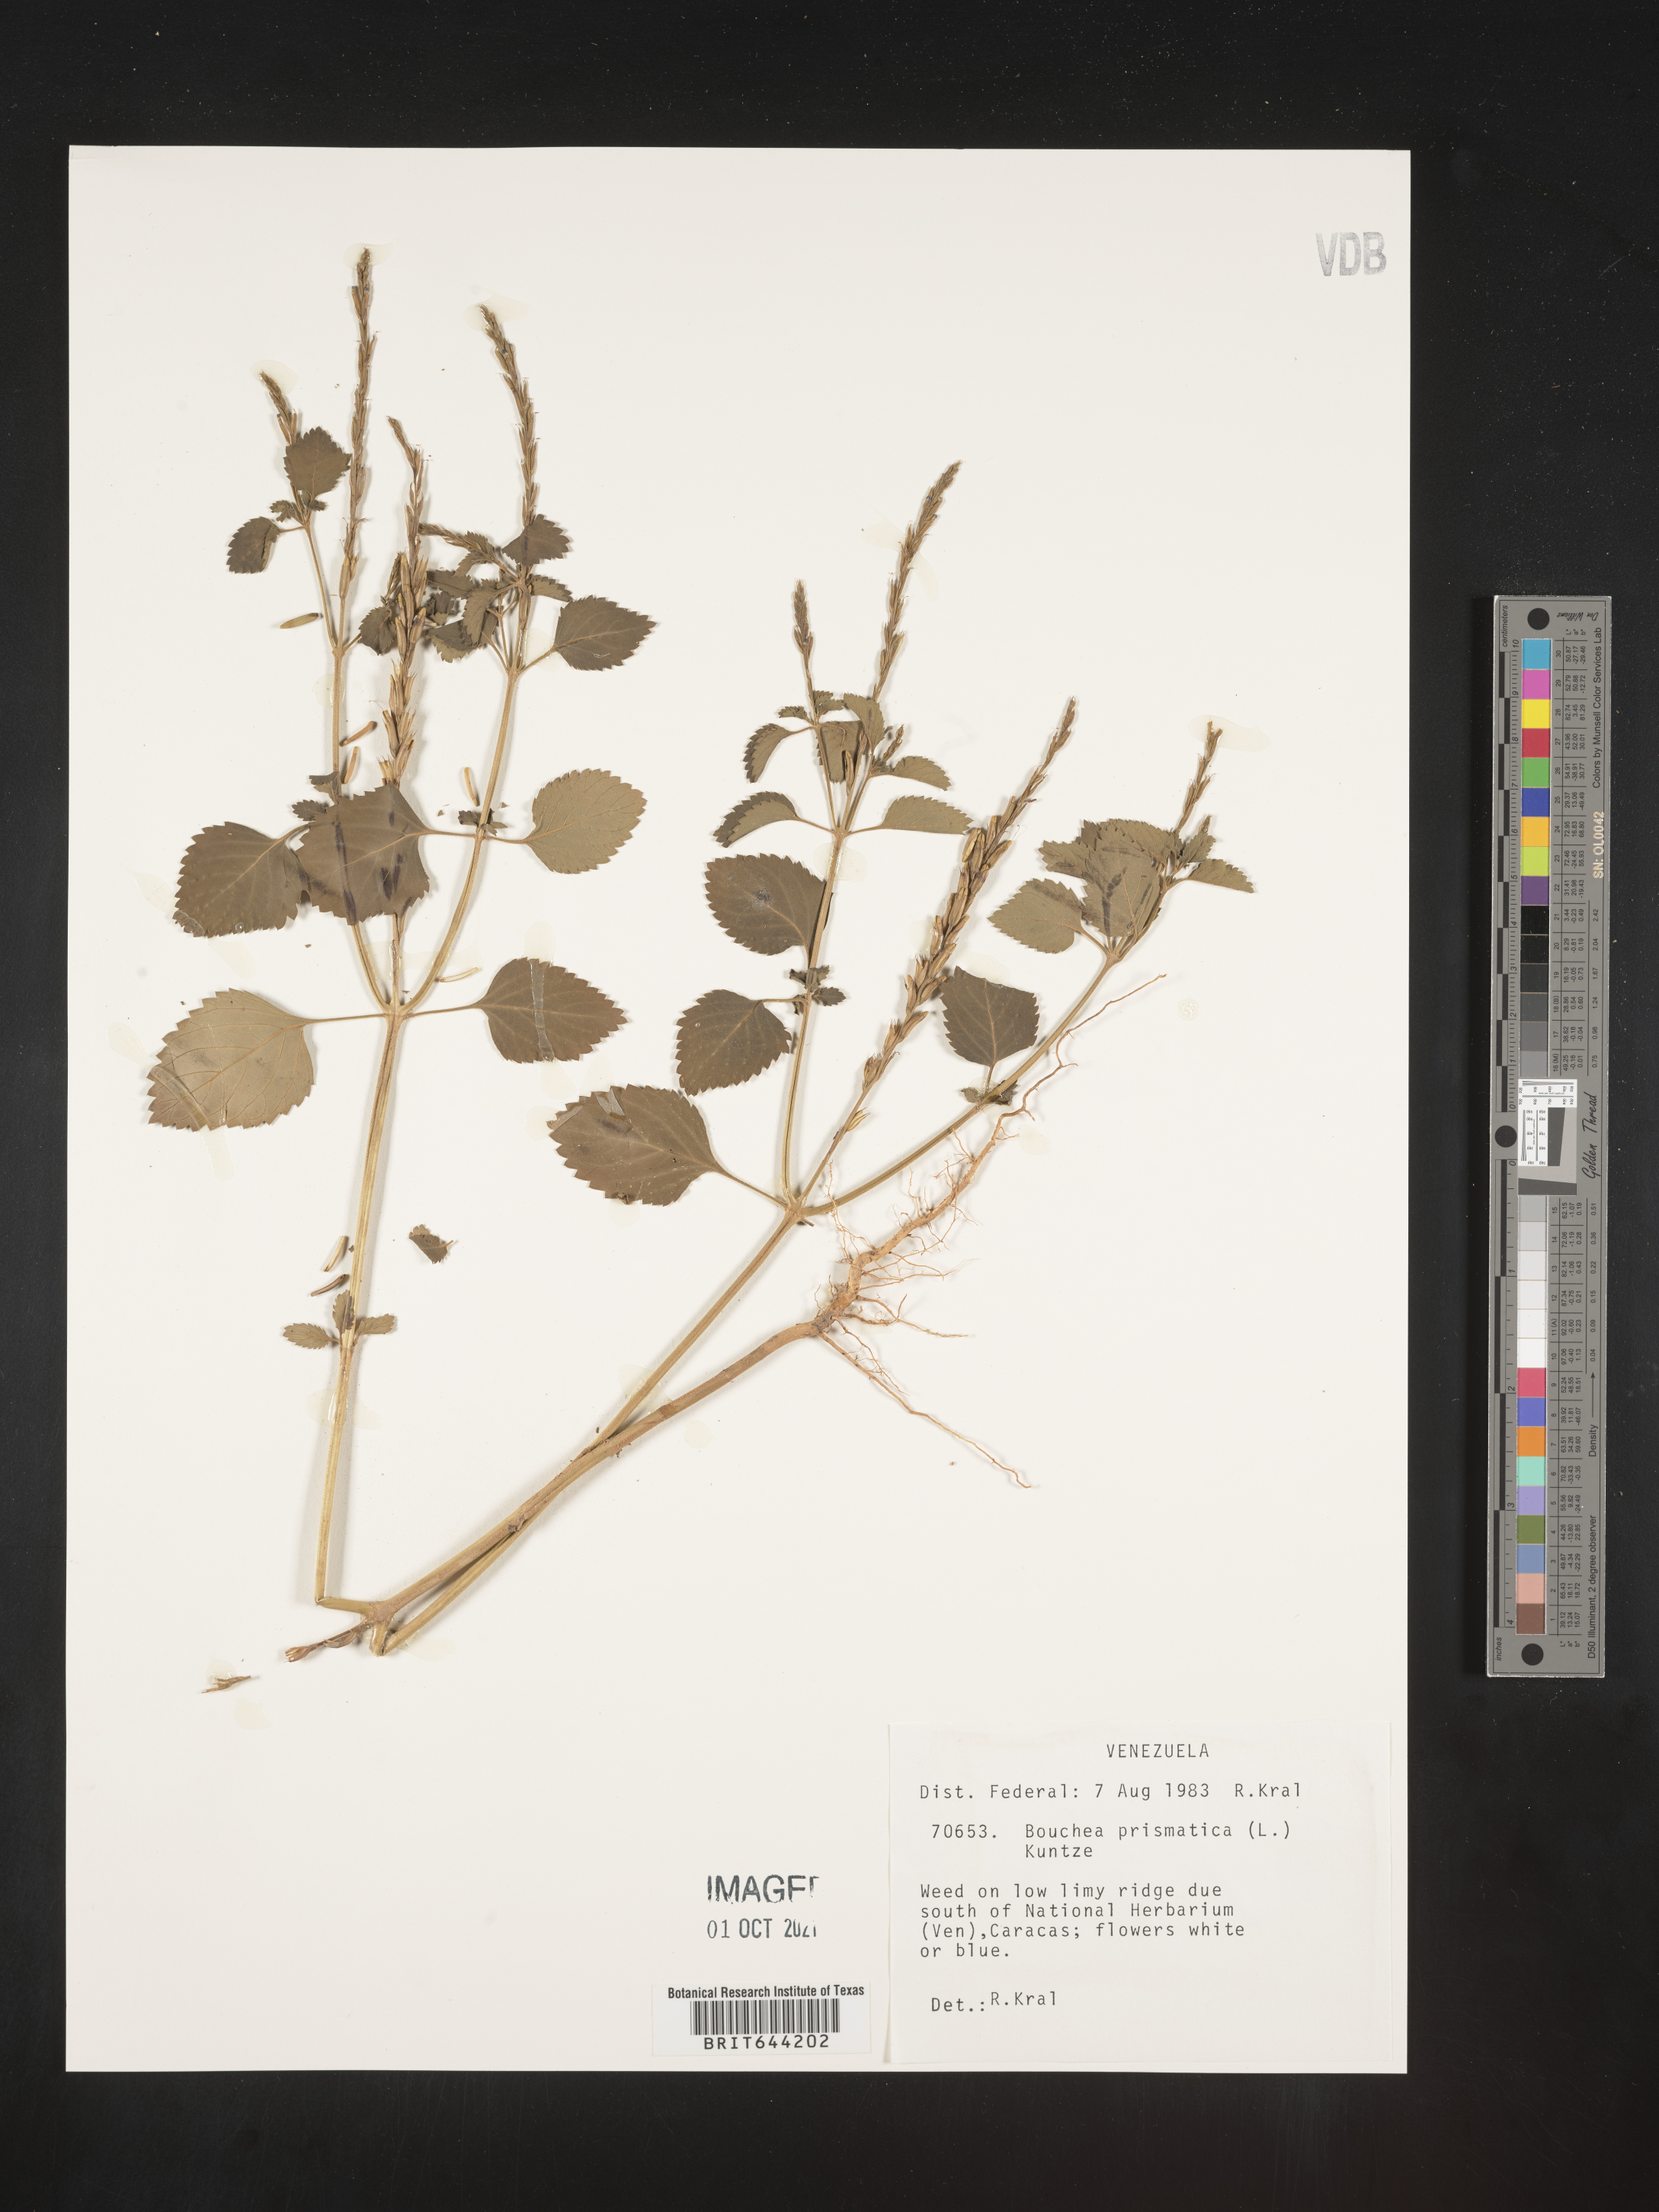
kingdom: Plantae
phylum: Tracheophyta
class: Magnoliopsida
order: Lamiales
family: Verbenaceae
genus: Bouchea
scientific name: Bouchea
